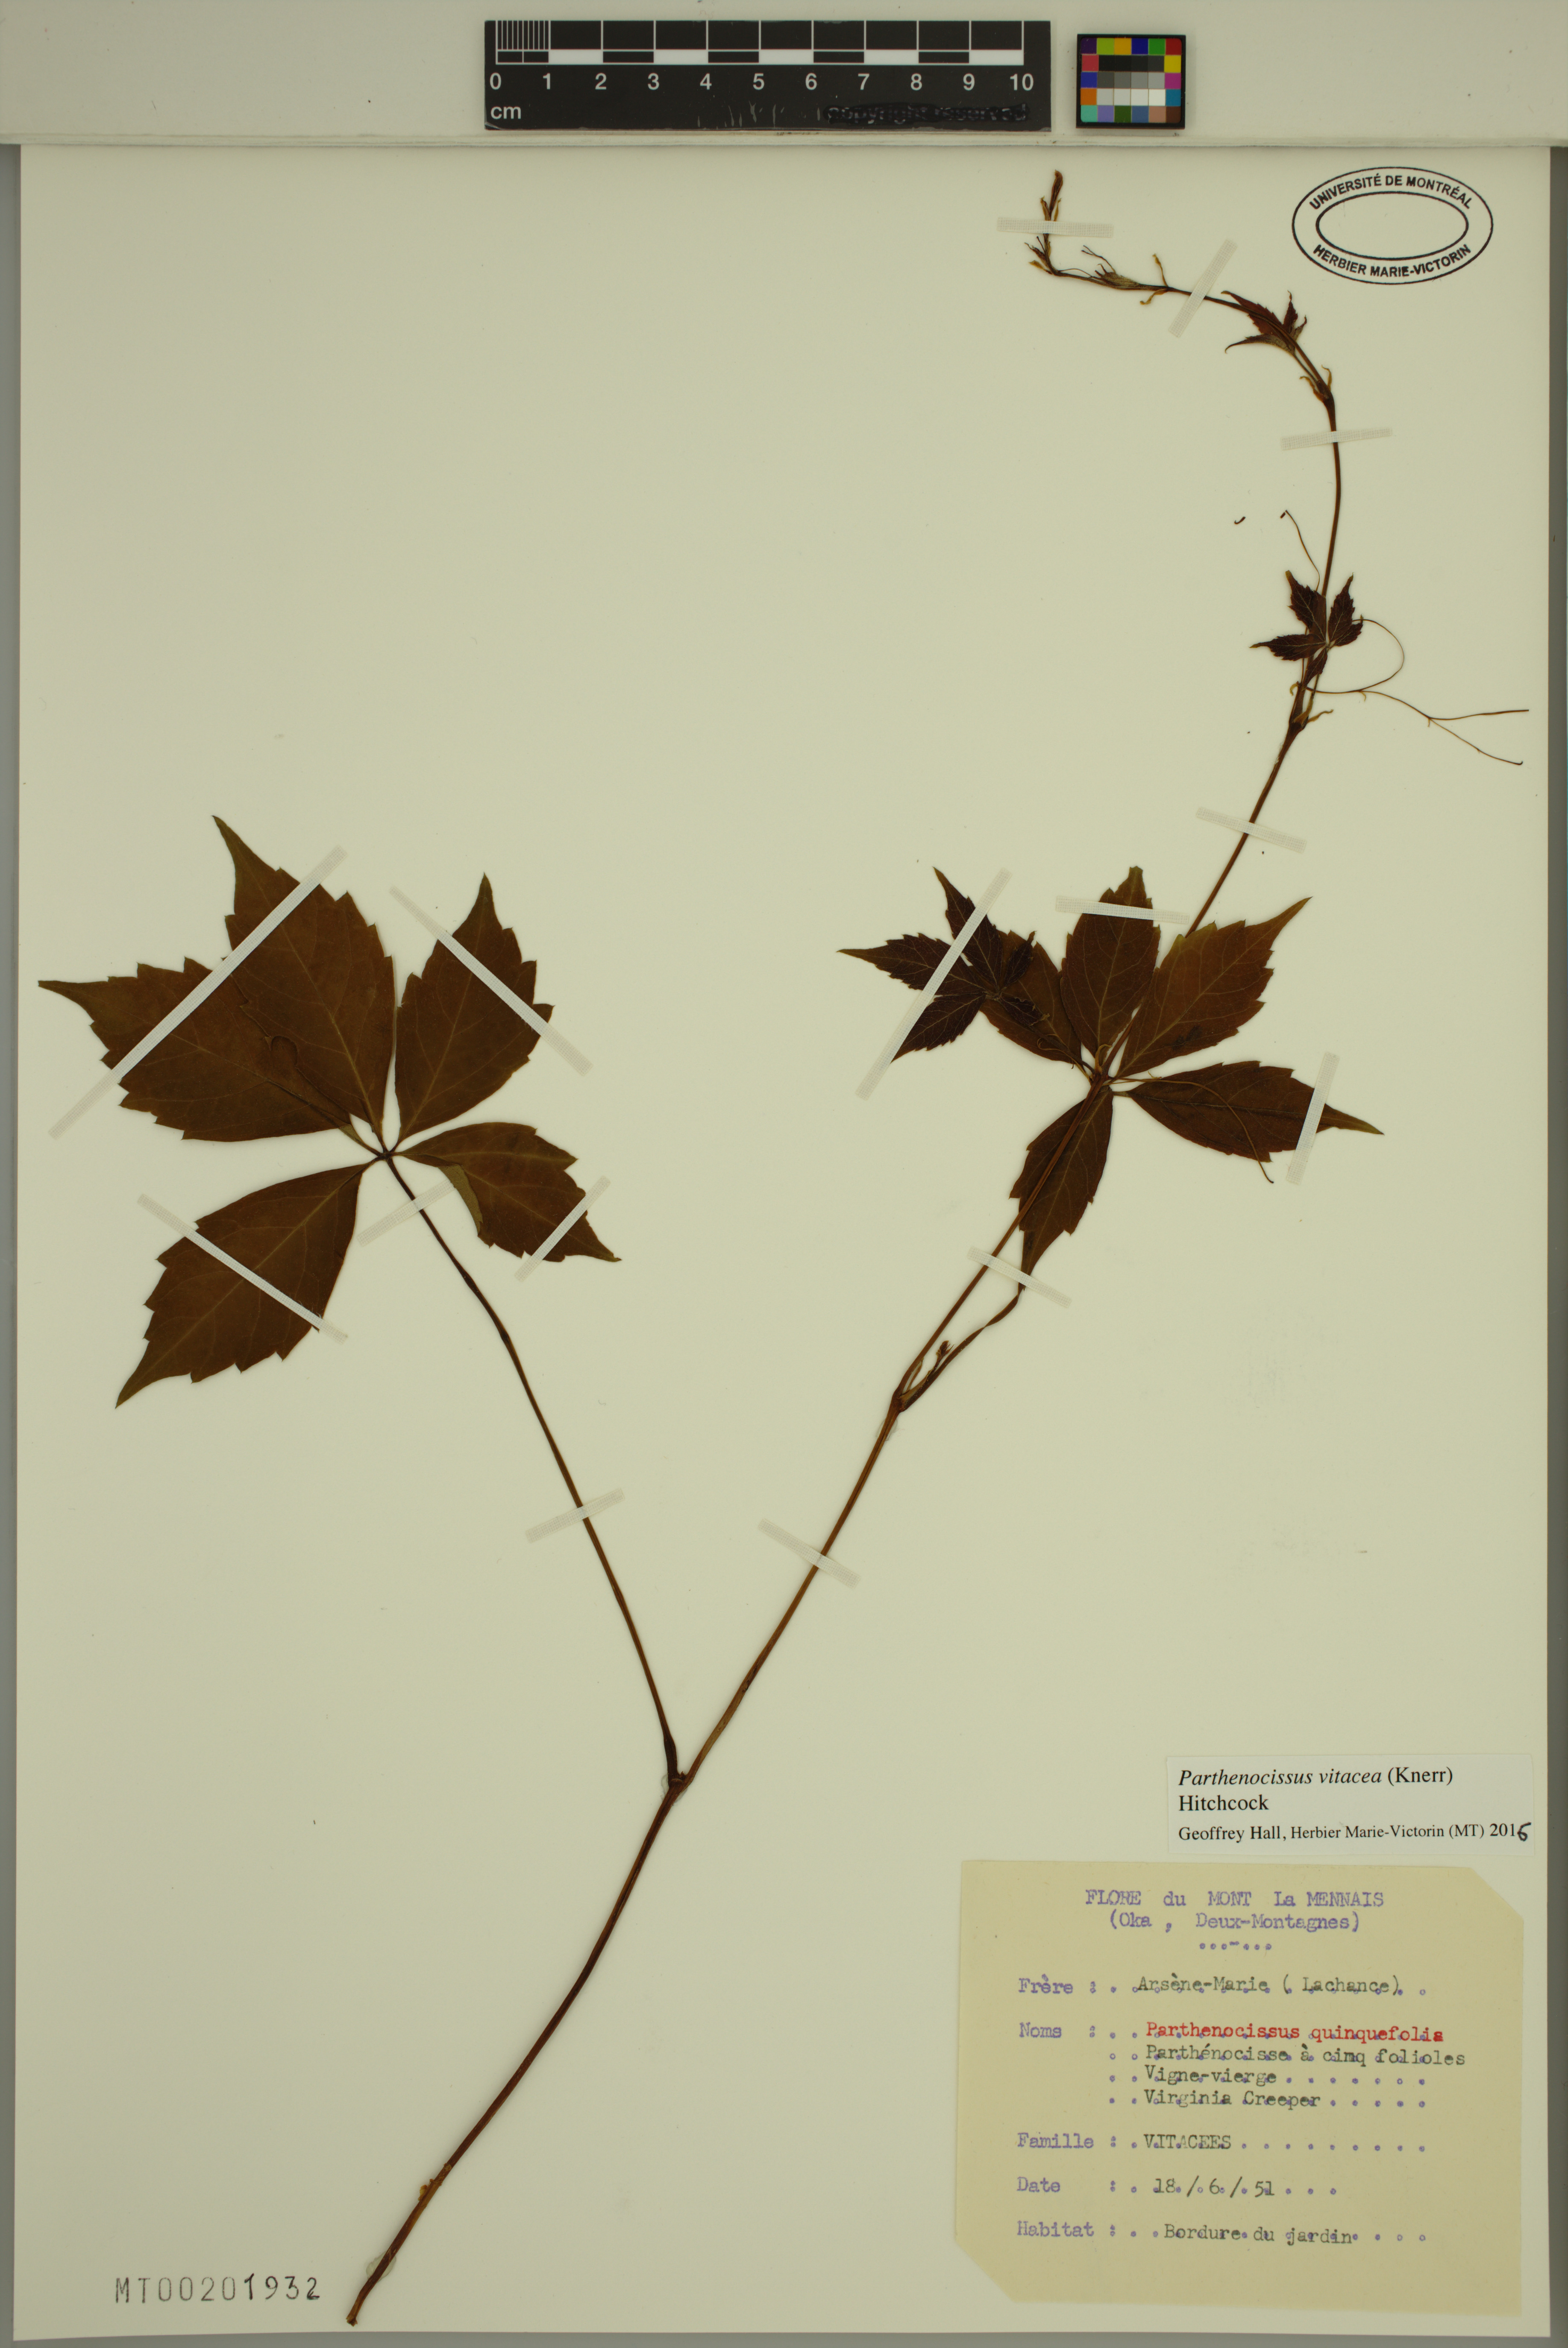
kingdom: Plantae
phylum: Tracheophyta
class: Magnoliopsida
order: Vitales
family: Vitaceae
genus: Parthenocissus
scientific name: Parthenocissus inserta
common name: False virginia-creeper
